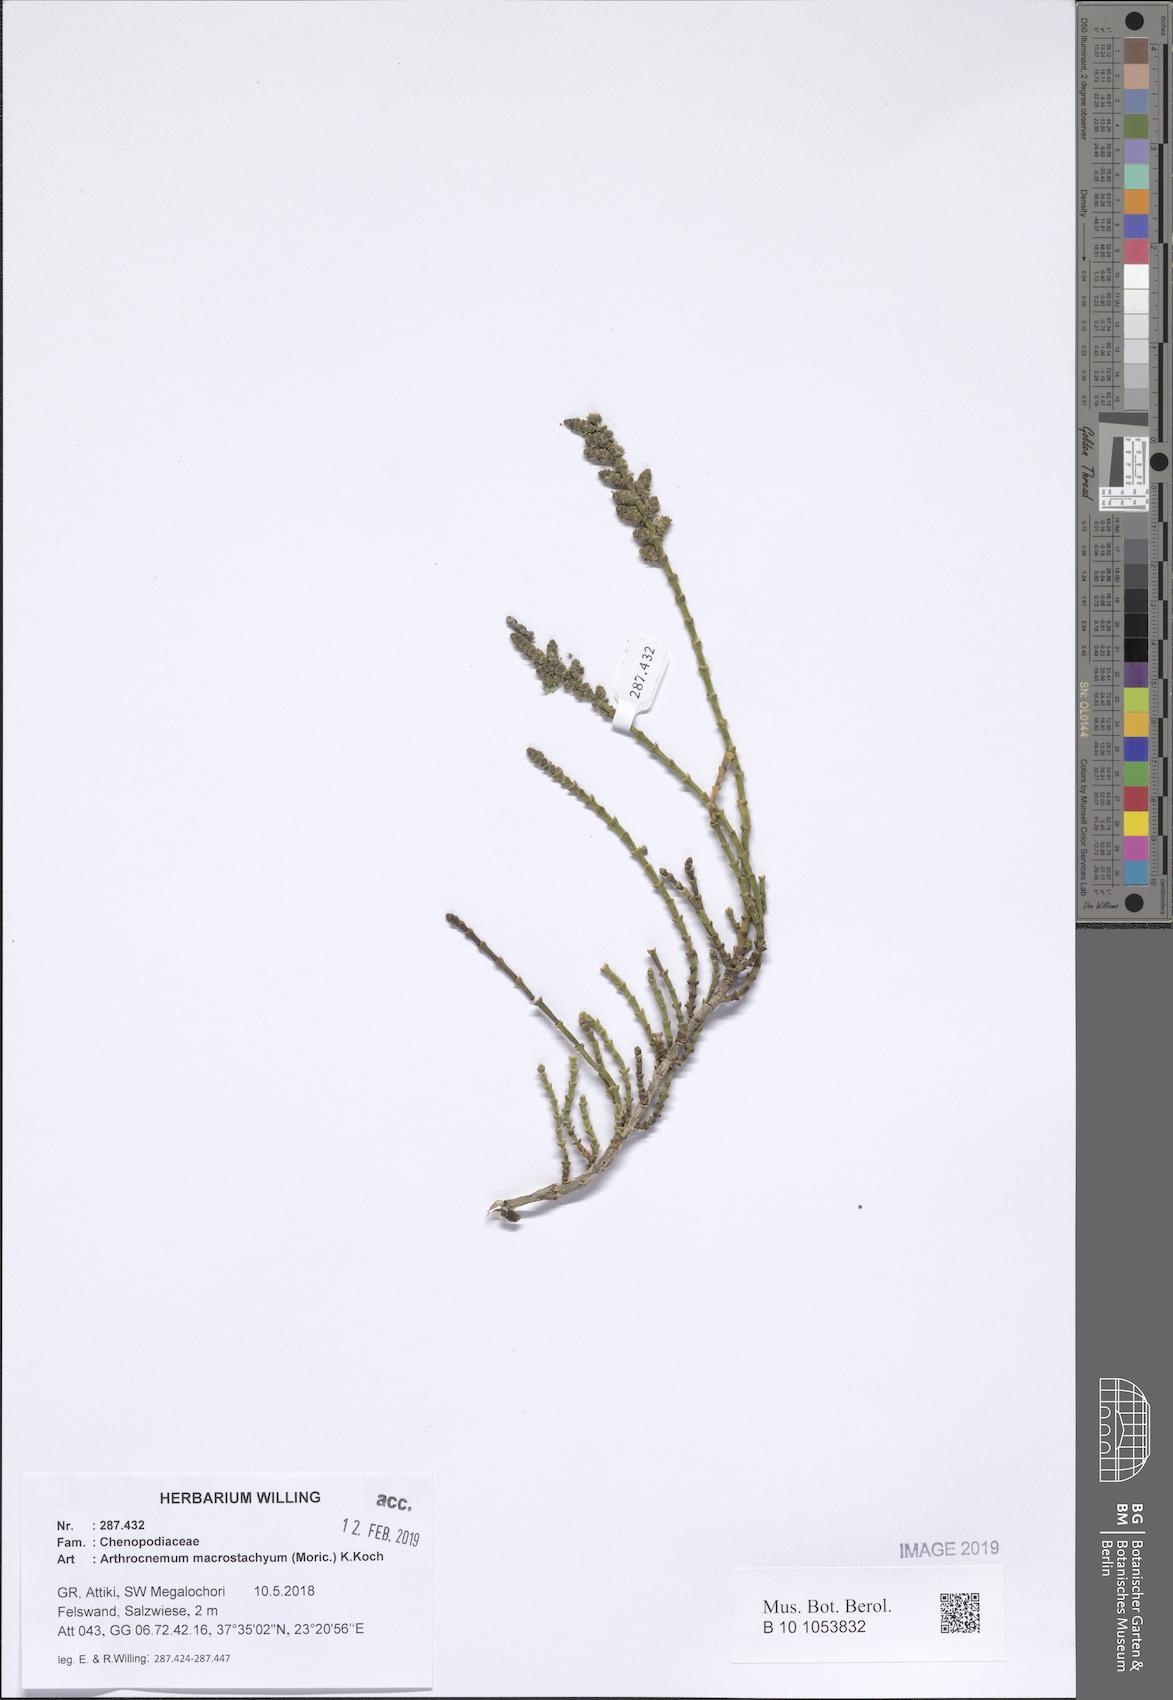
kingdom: Plantae
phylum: Tracheophyta
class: Magnoliopsida
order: Caryophyllales
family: Amaranthaceae
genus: Arthrocaulon
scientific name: Arthrocaulon macrostachyum
